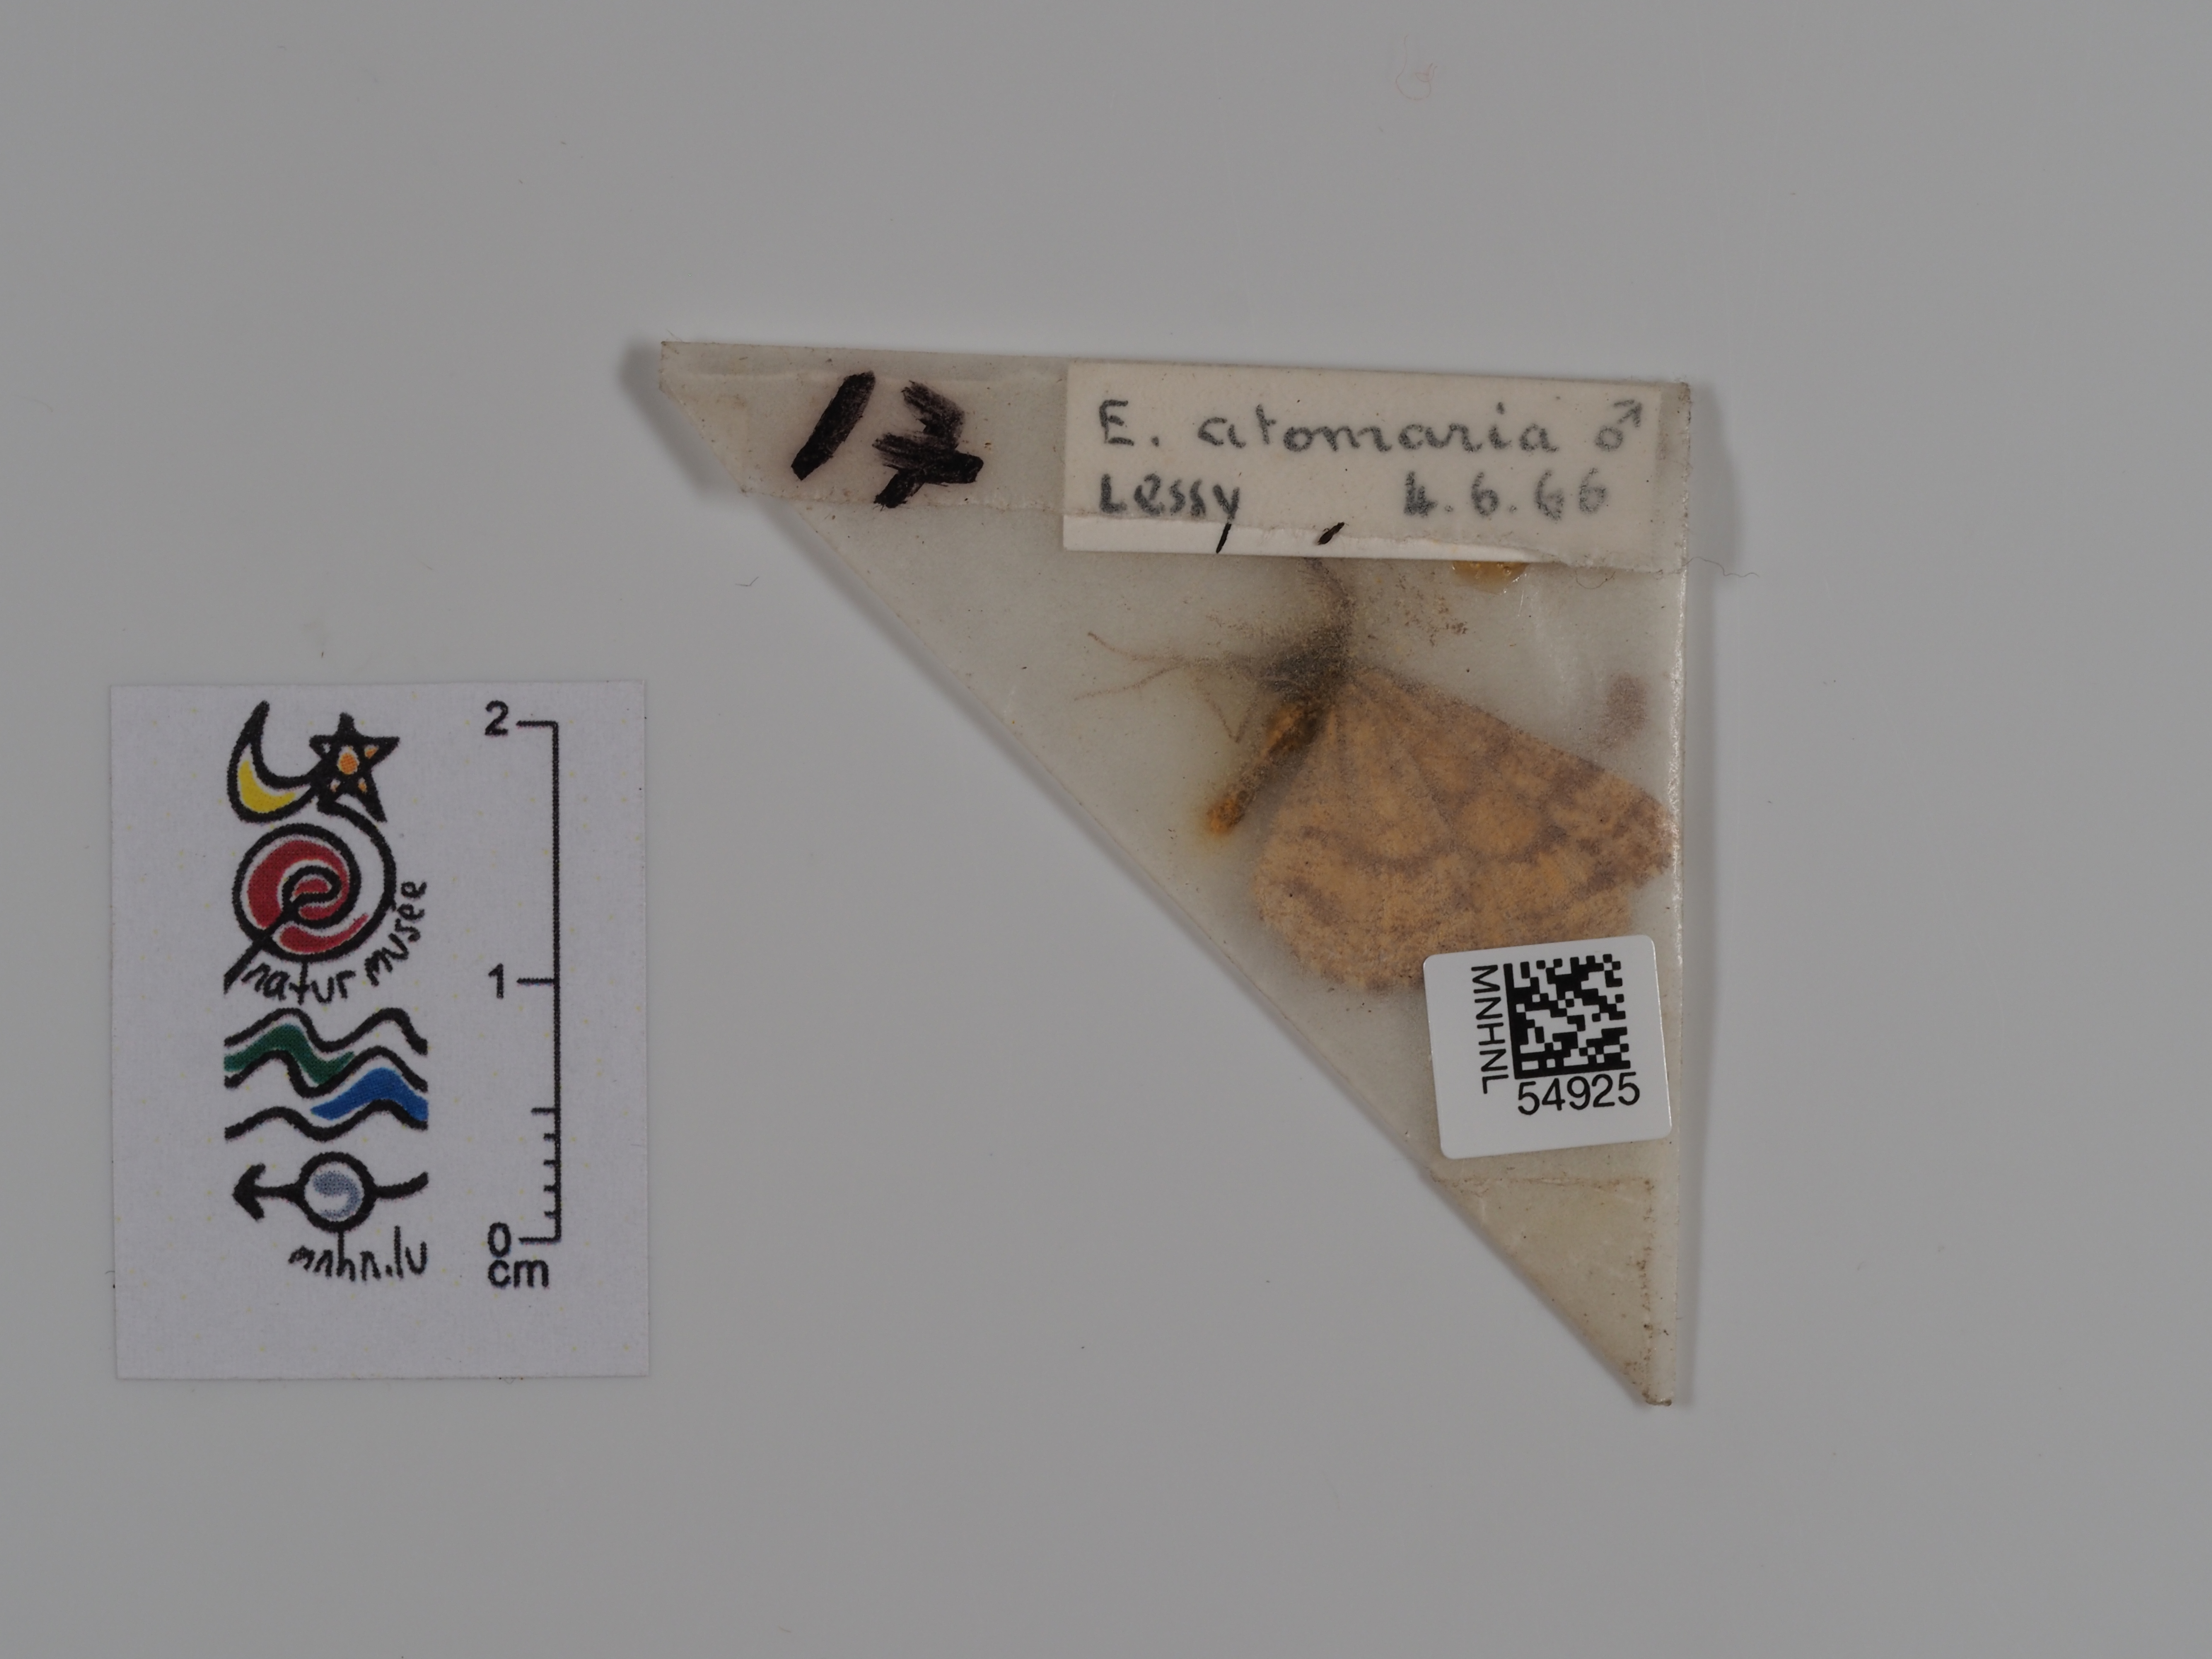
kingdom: Animalia
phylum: Arthropoda
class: Insecta
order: Lepidoptera
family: Geometridae
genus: Ematurga
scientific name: Ematurga atomaria
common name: Common heath
